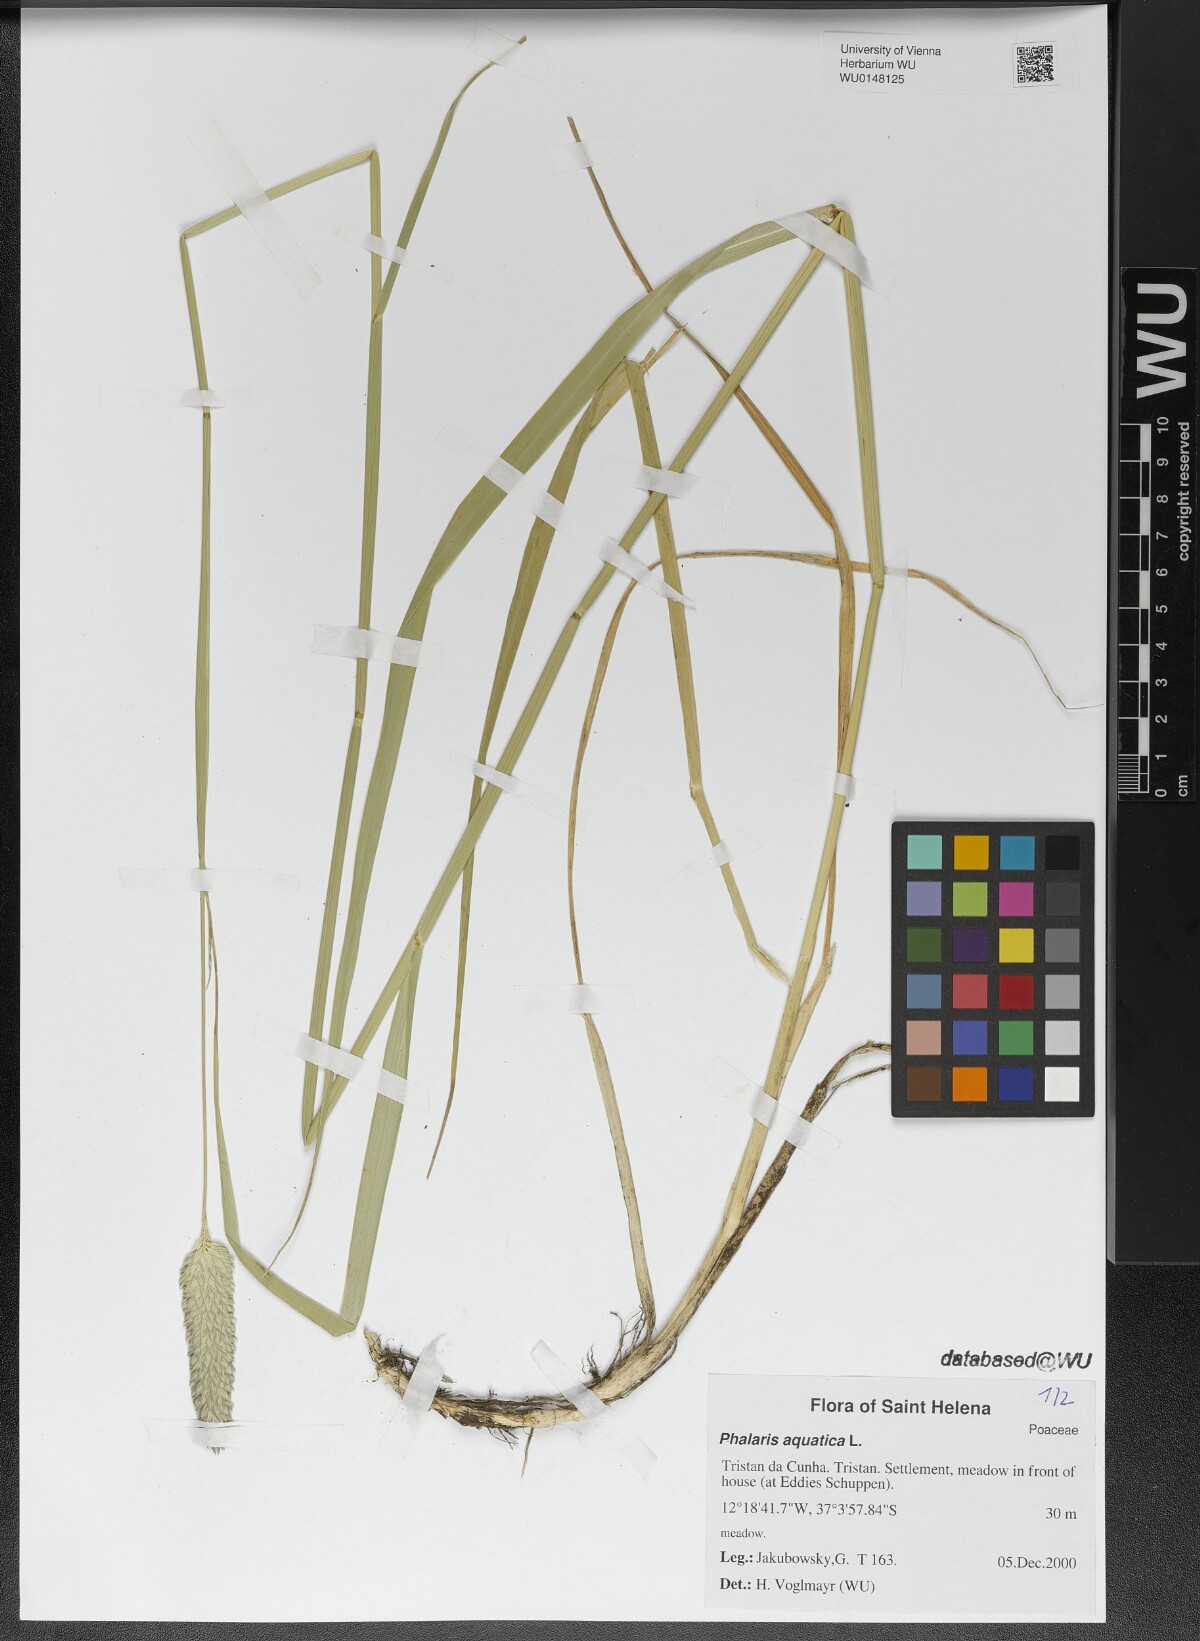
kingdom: Plantae
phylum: Tracheophyta
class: Liliopsida
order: Poales
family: Poaceae
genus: Phalaris
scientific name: Phalaris aquatica
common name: Bulbous canary-grass
